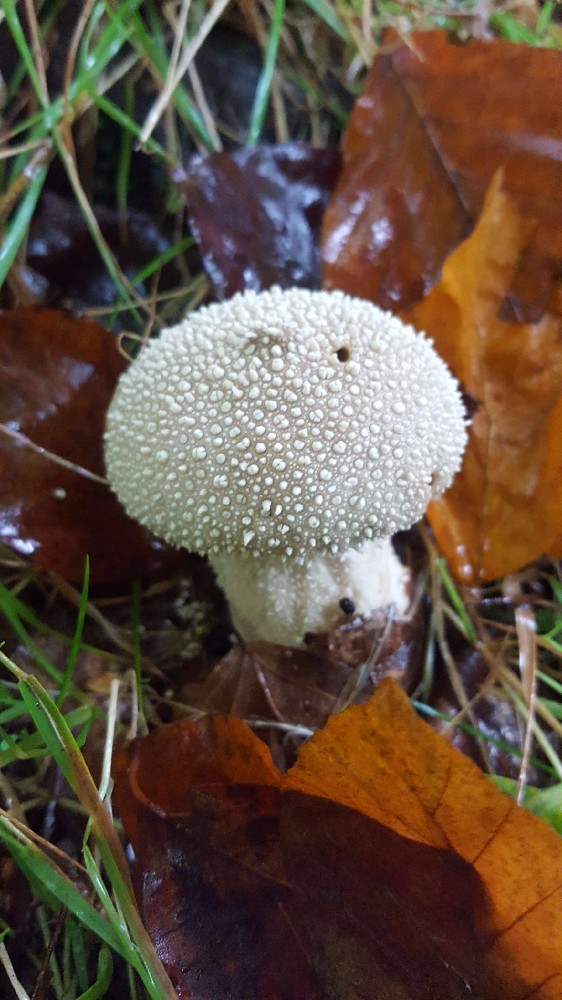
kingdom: Fungi
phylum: Basidiomycota
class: Agaricomycetes
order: Agaricales
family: Lycoperdaceae
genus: Lycoperdon
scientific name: Lycoperdon perlatum
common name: krystal-støvbold
